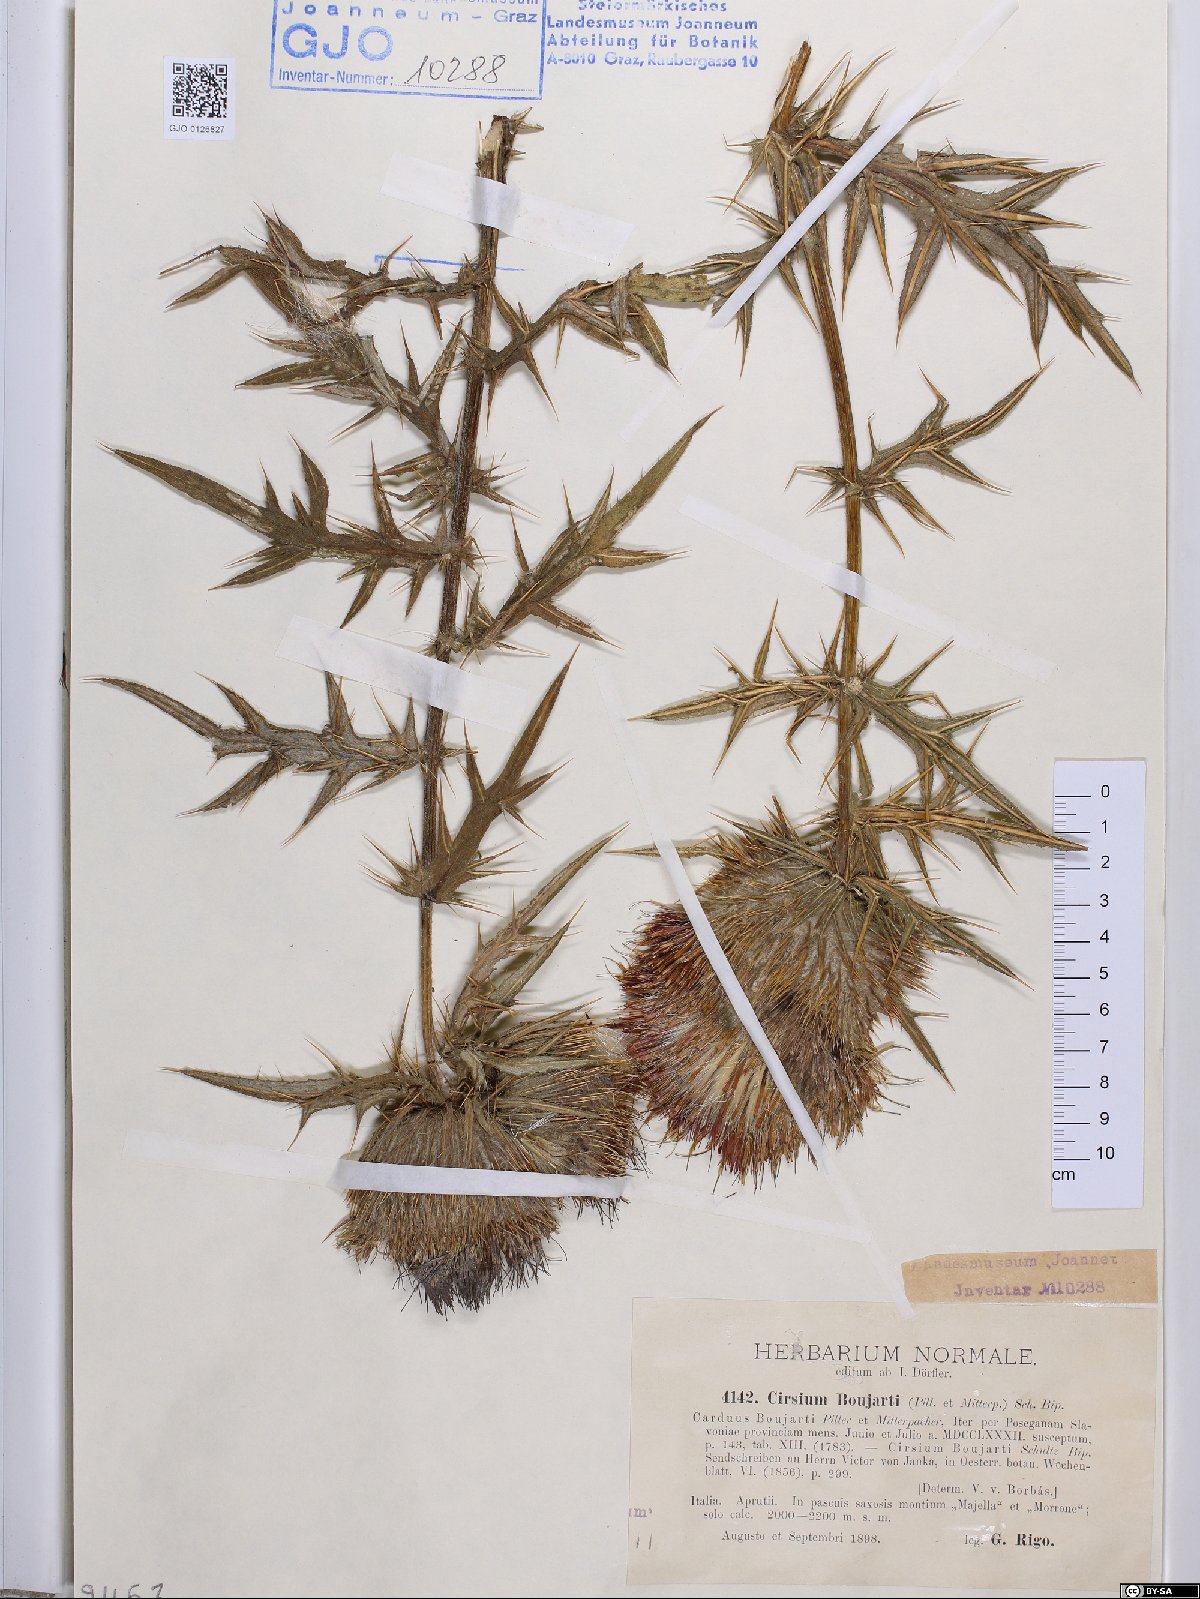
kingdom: Plantae
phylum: Tracheophyta
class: Magnoliopsida
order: Asterales
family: Asteraceae
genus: Lophiolepis
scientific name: Lophiolepis boujartii
